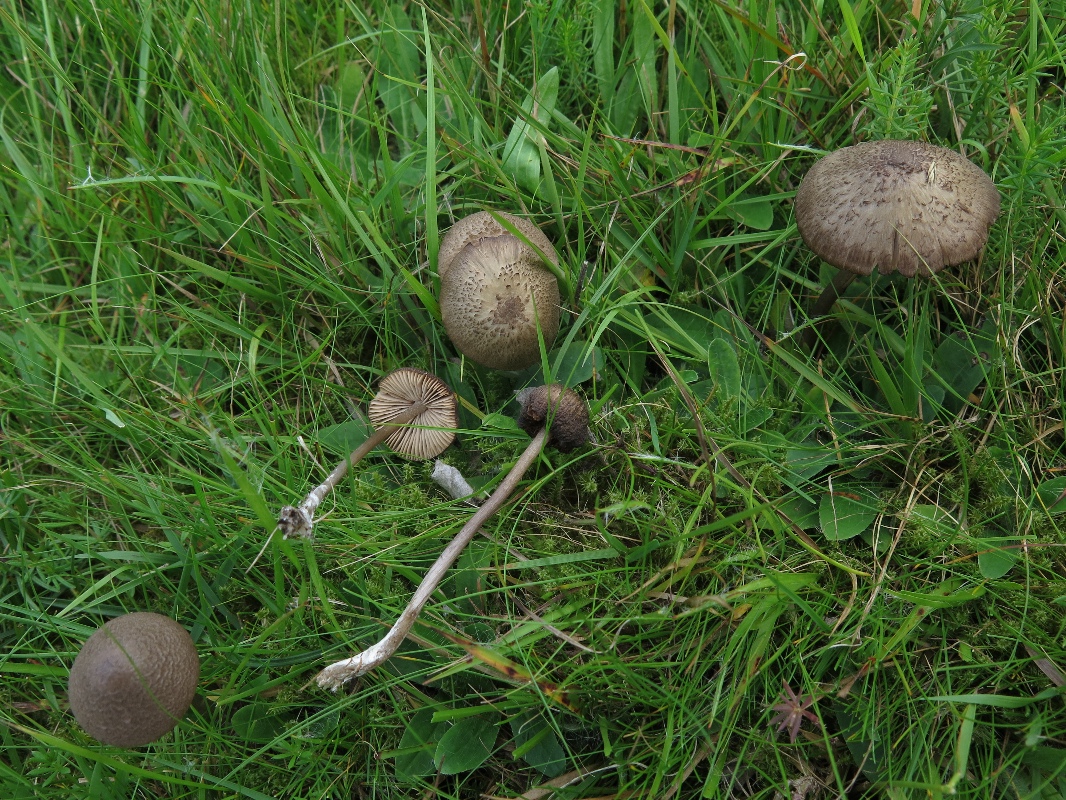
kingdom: Fungi
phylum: Basidiomycota
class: Agaricomycetes
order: Agaricales
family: Entolomataceae
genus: Entoloma
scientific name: Entoloma griseocyaneum
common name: gråblå rødblad
